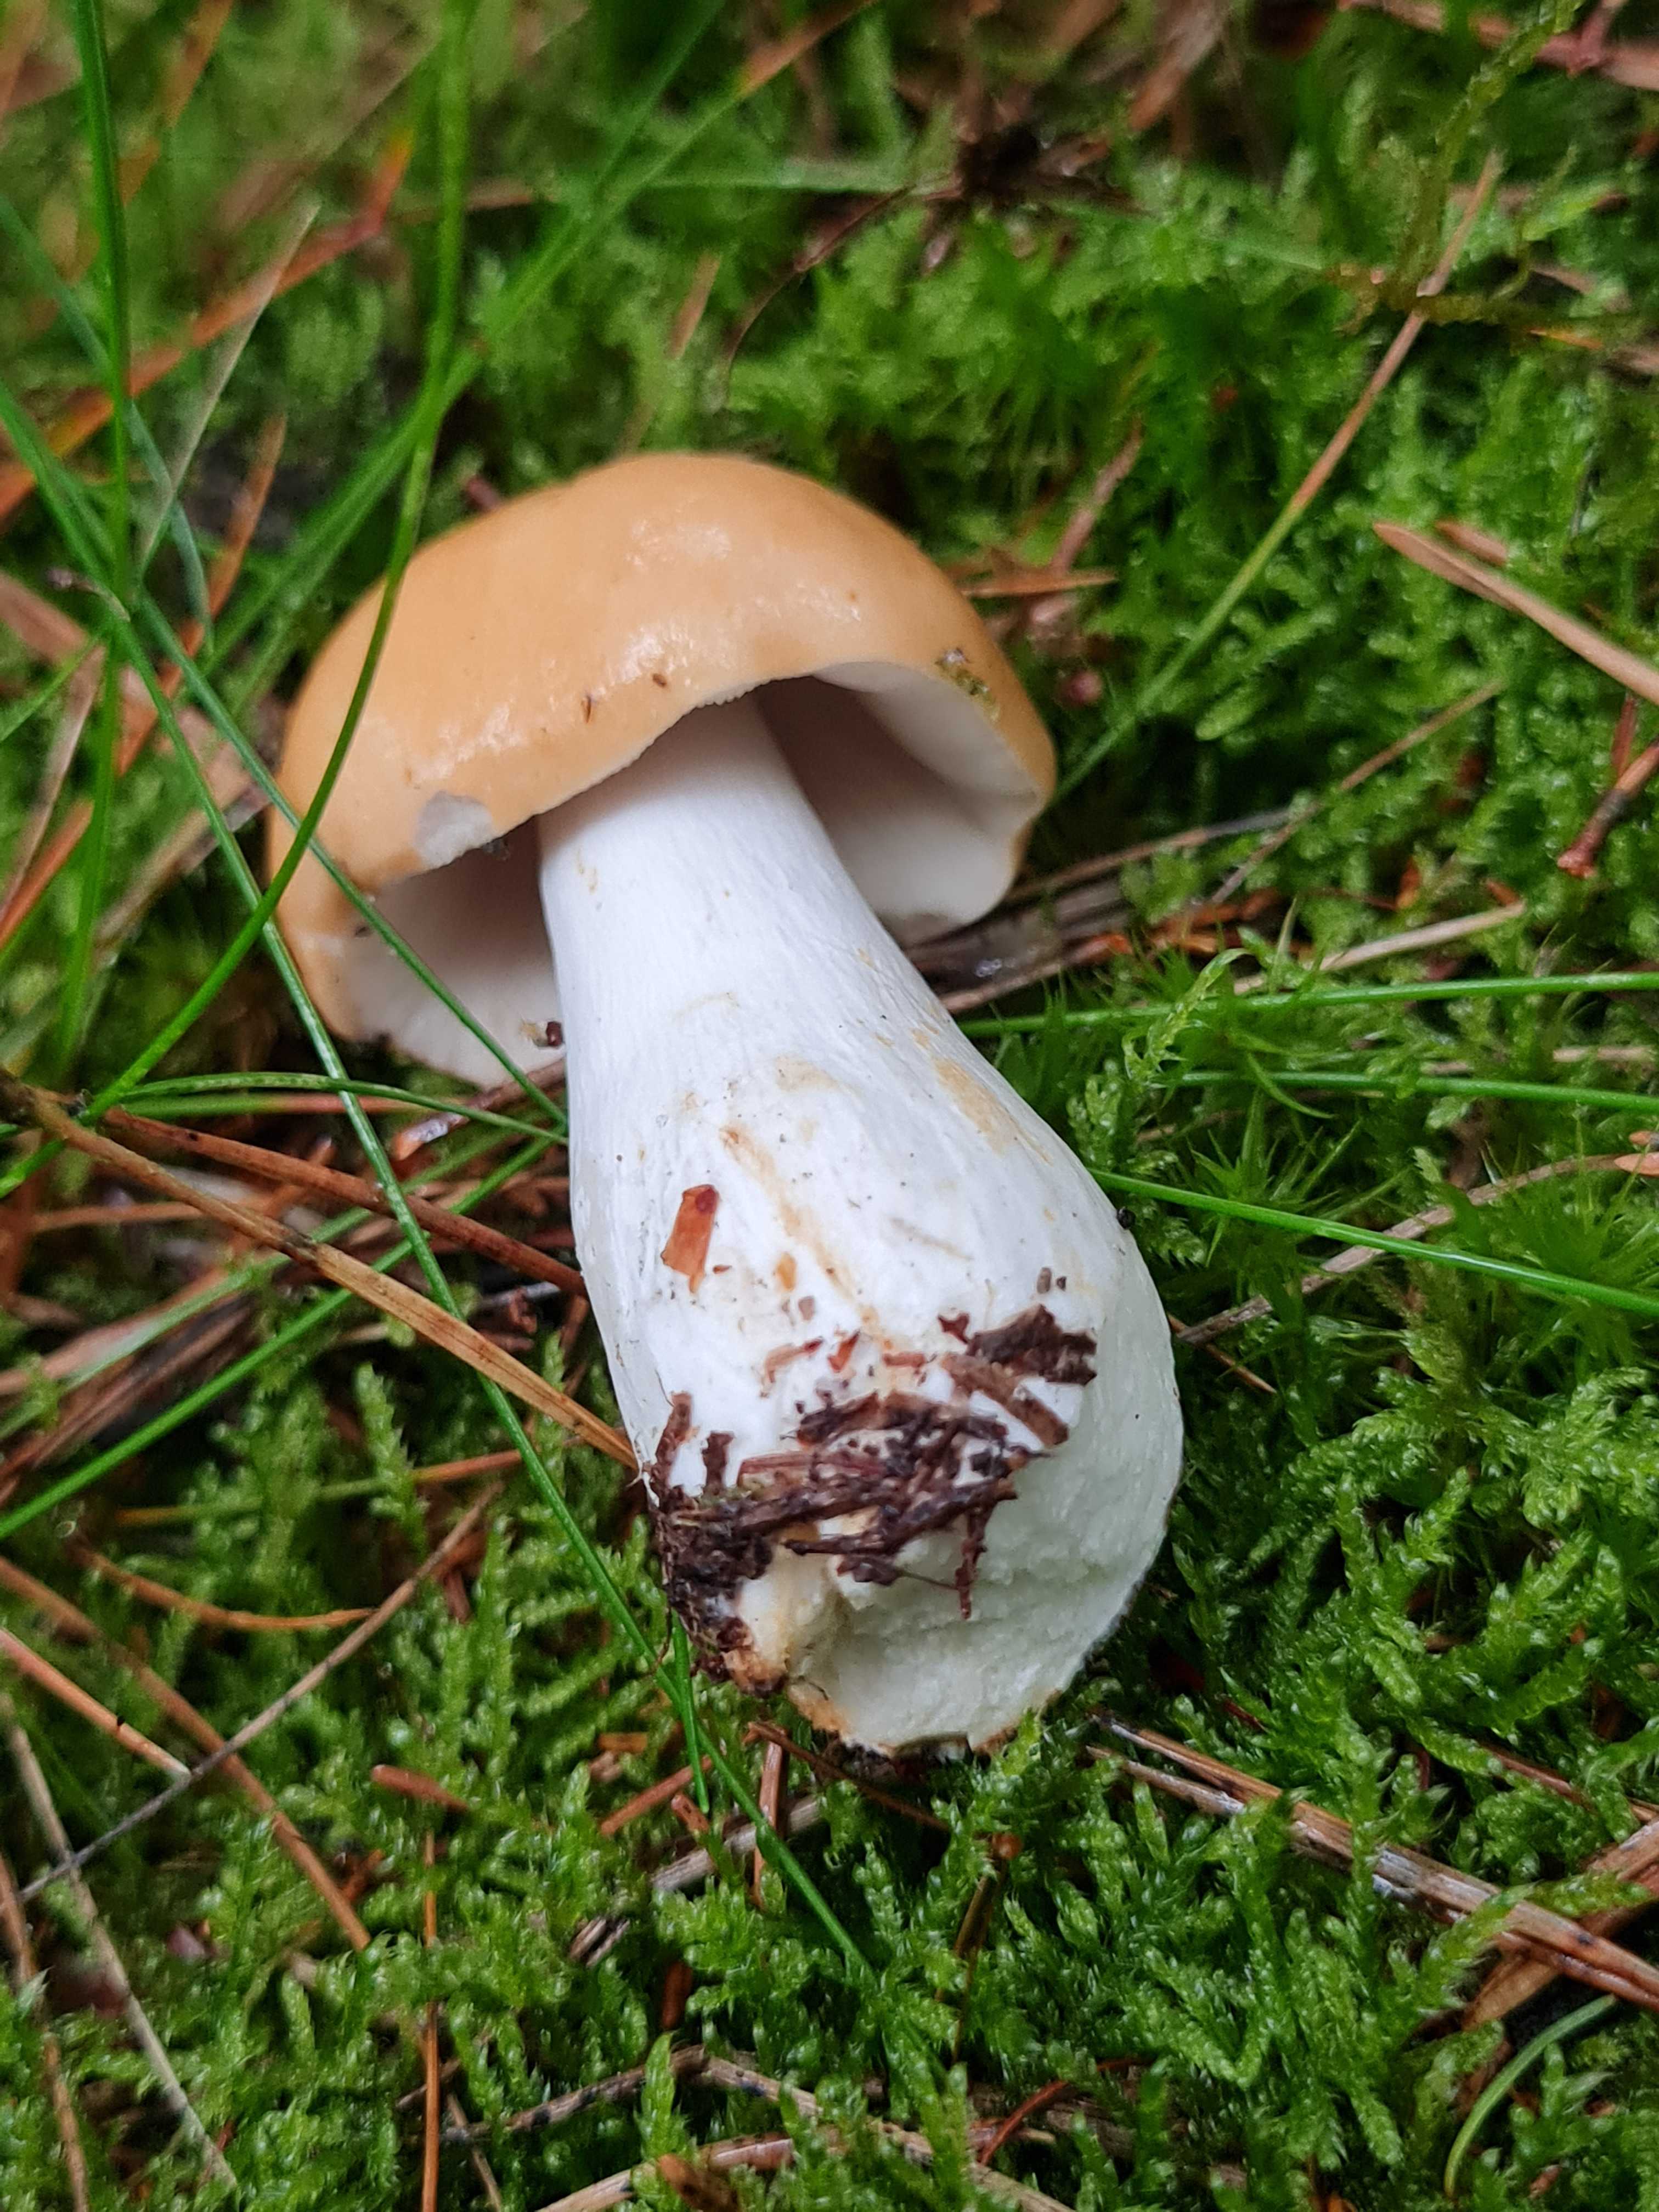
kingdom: Fungi
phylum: Basidiomycota
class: Agaricomycetes
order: Russulales
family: Russulaceae
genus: Russula
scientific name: Russula
